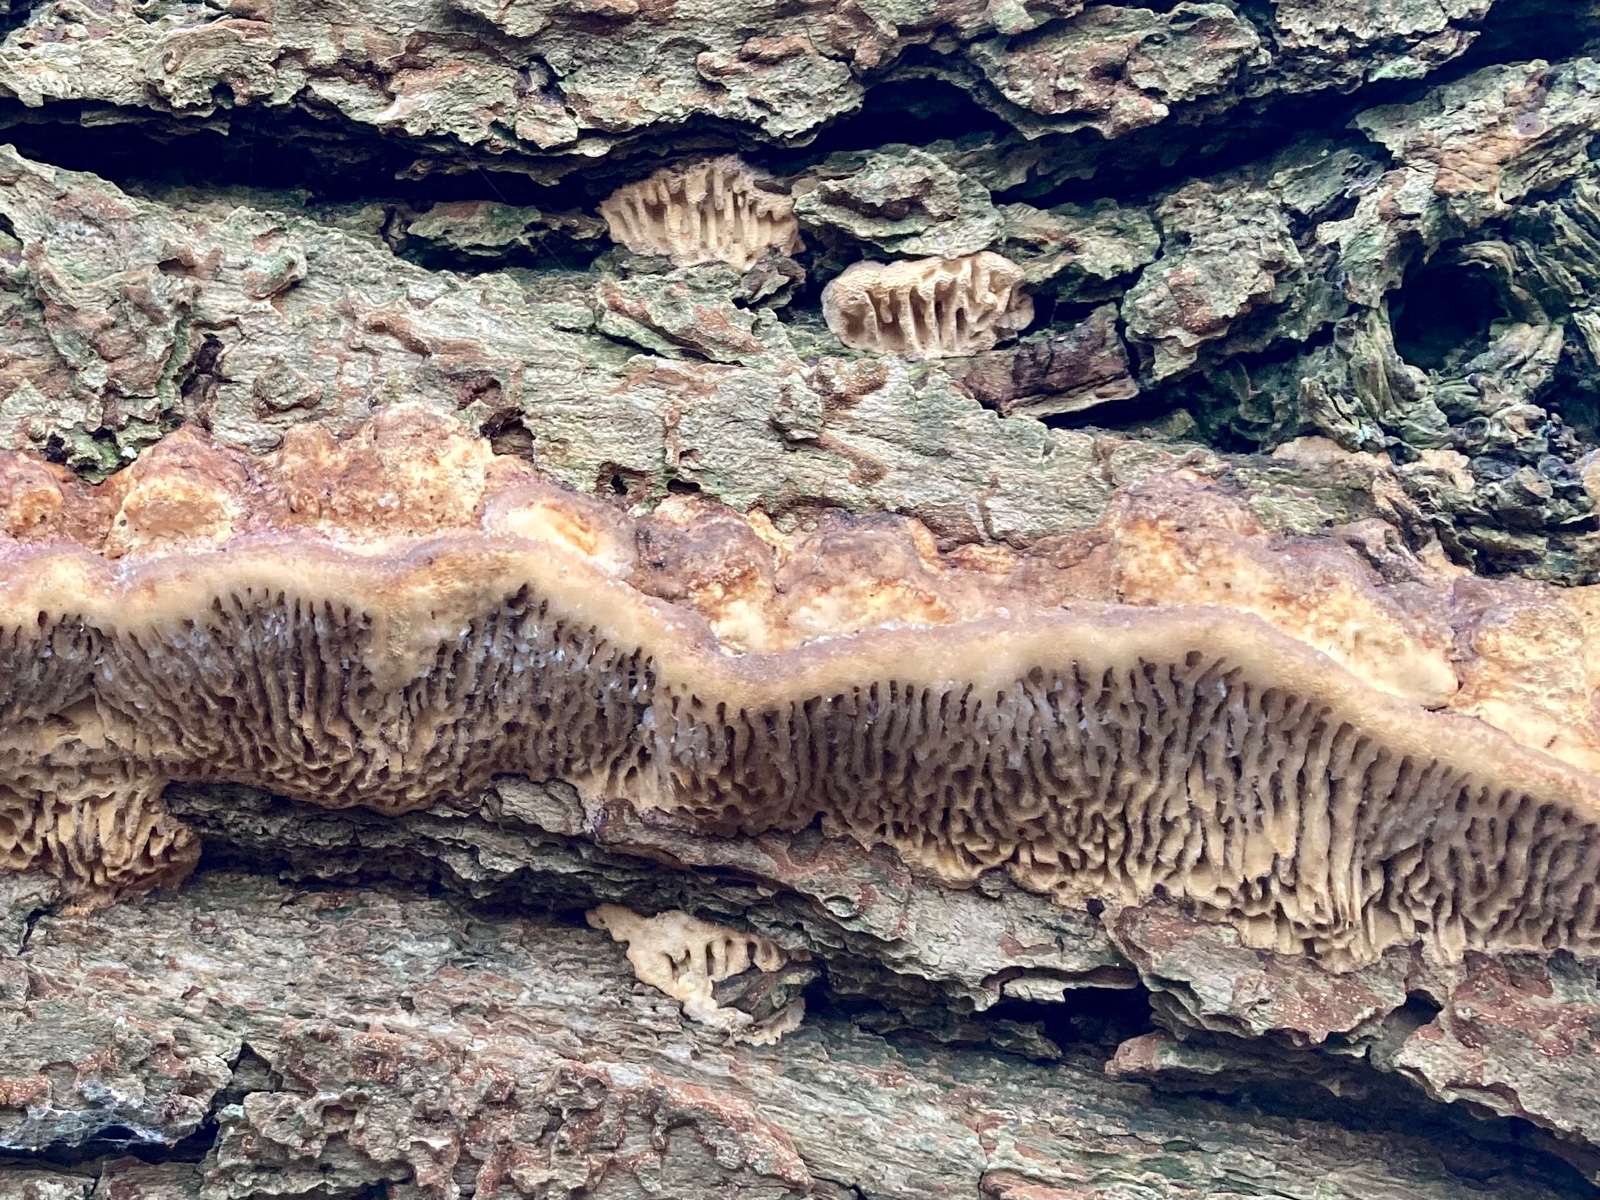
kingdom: Fungi
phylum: Basidiomycota
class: Agaricomycetes
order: Polyporales
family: Fomitopsidaceae
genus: Daedalea
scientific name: Daedalea quercina
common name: ege-labyrintsvamp
